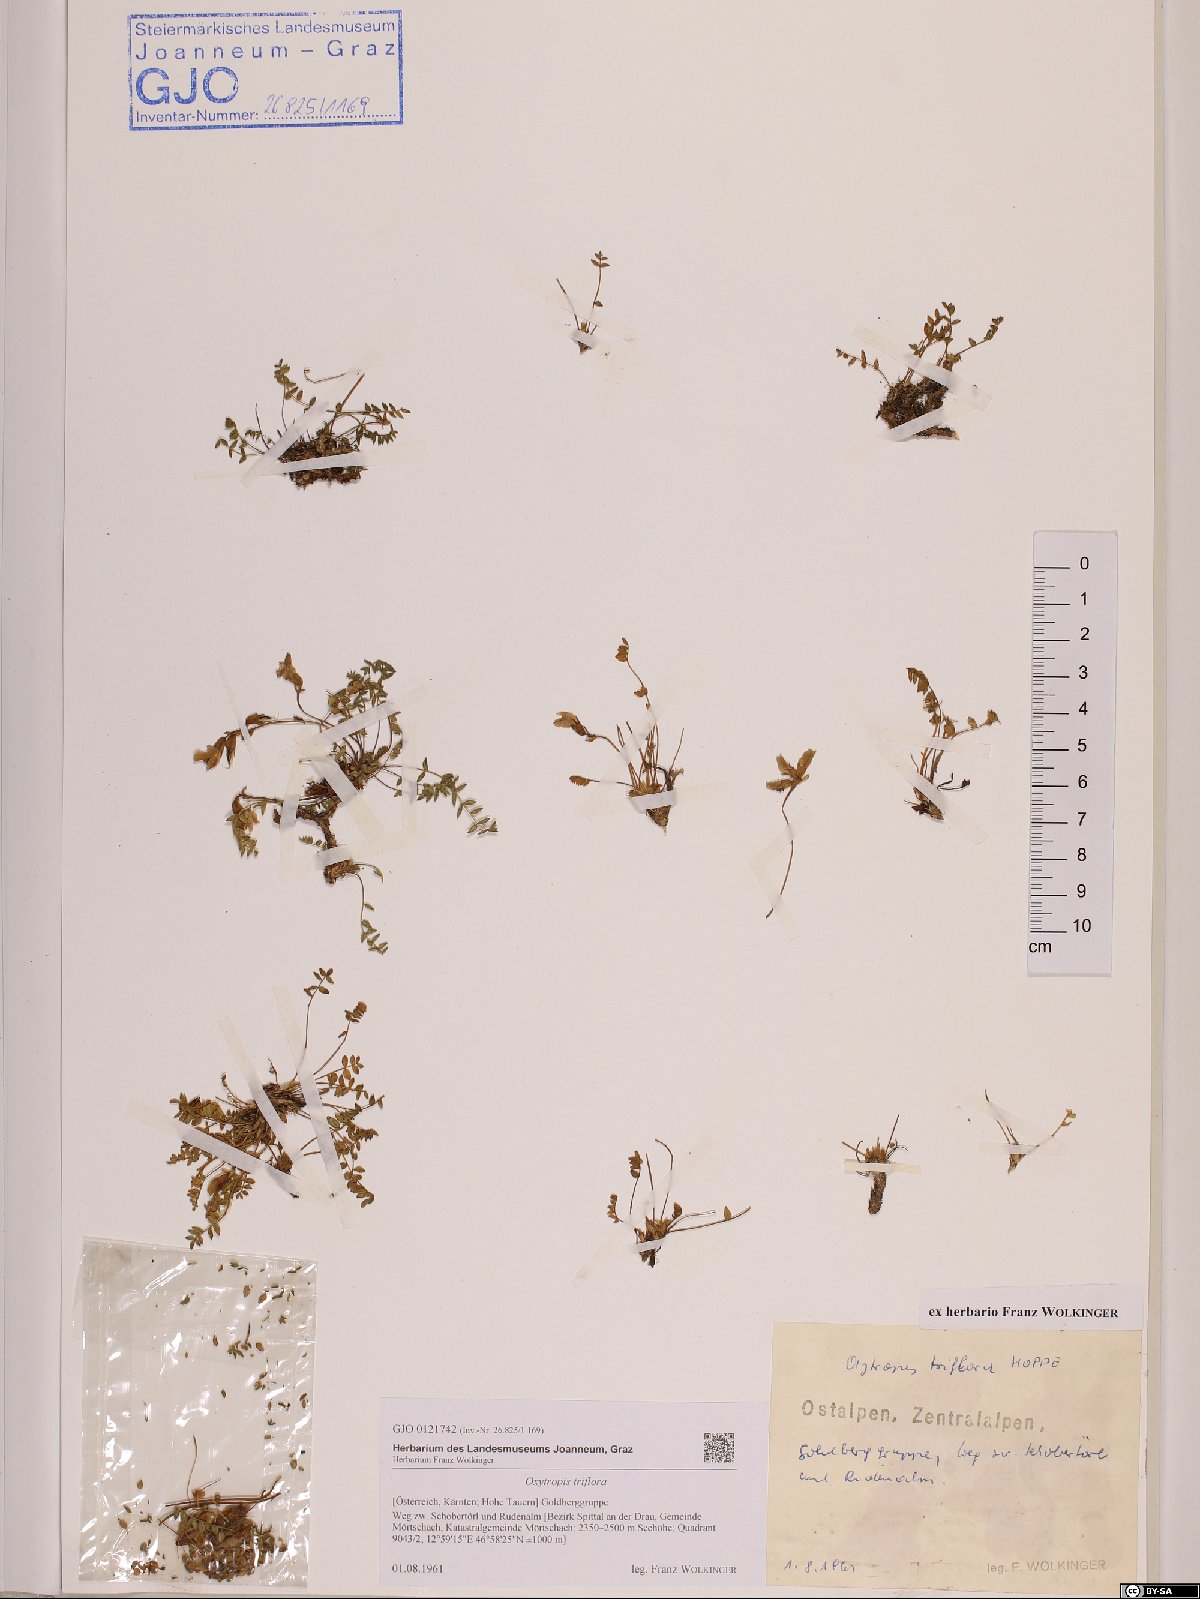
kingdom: Plantae
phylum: Tracheophyta
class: Magnoliopsida
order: Fabales
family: Fabaceae
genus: Oxytropis
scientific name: Oxytropis triflora
